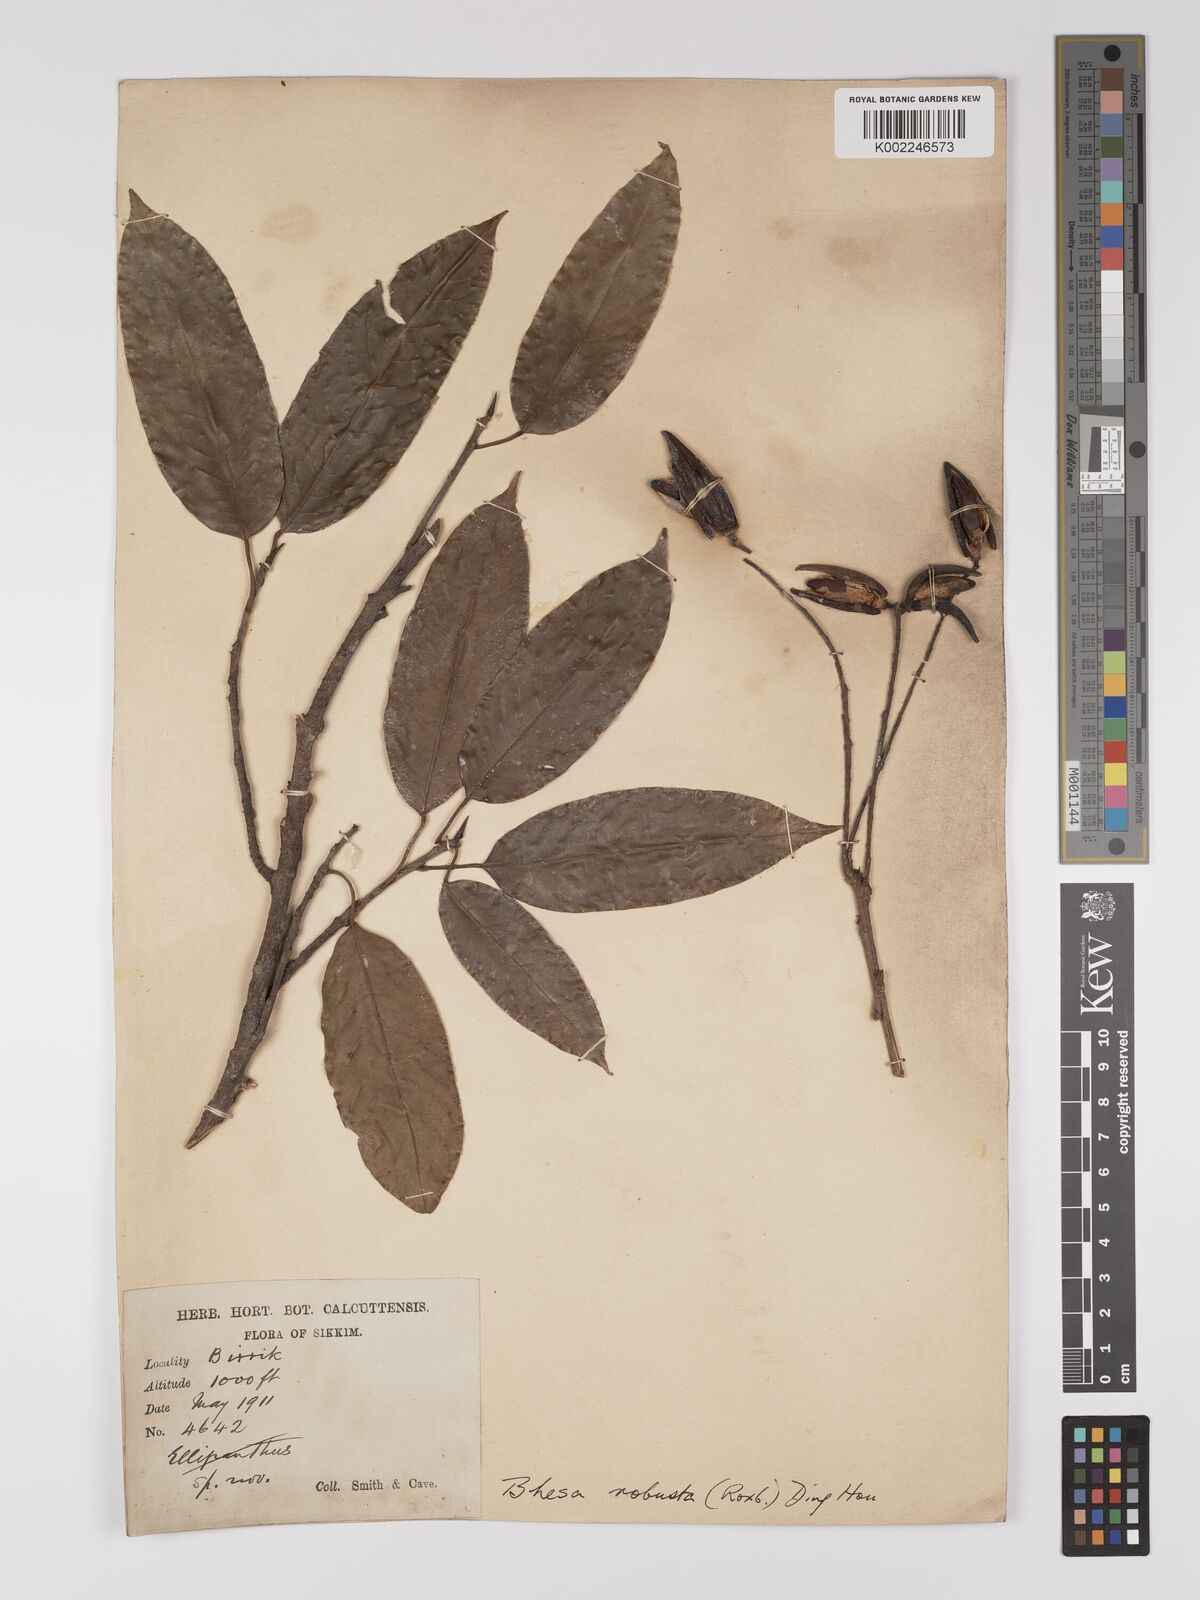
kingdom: Plantae
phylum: Tracheophyta
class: Magnoliopsida
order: Malpighiales
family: Centroplacaceae
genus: Bhesa
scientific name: Bhesa robusta
